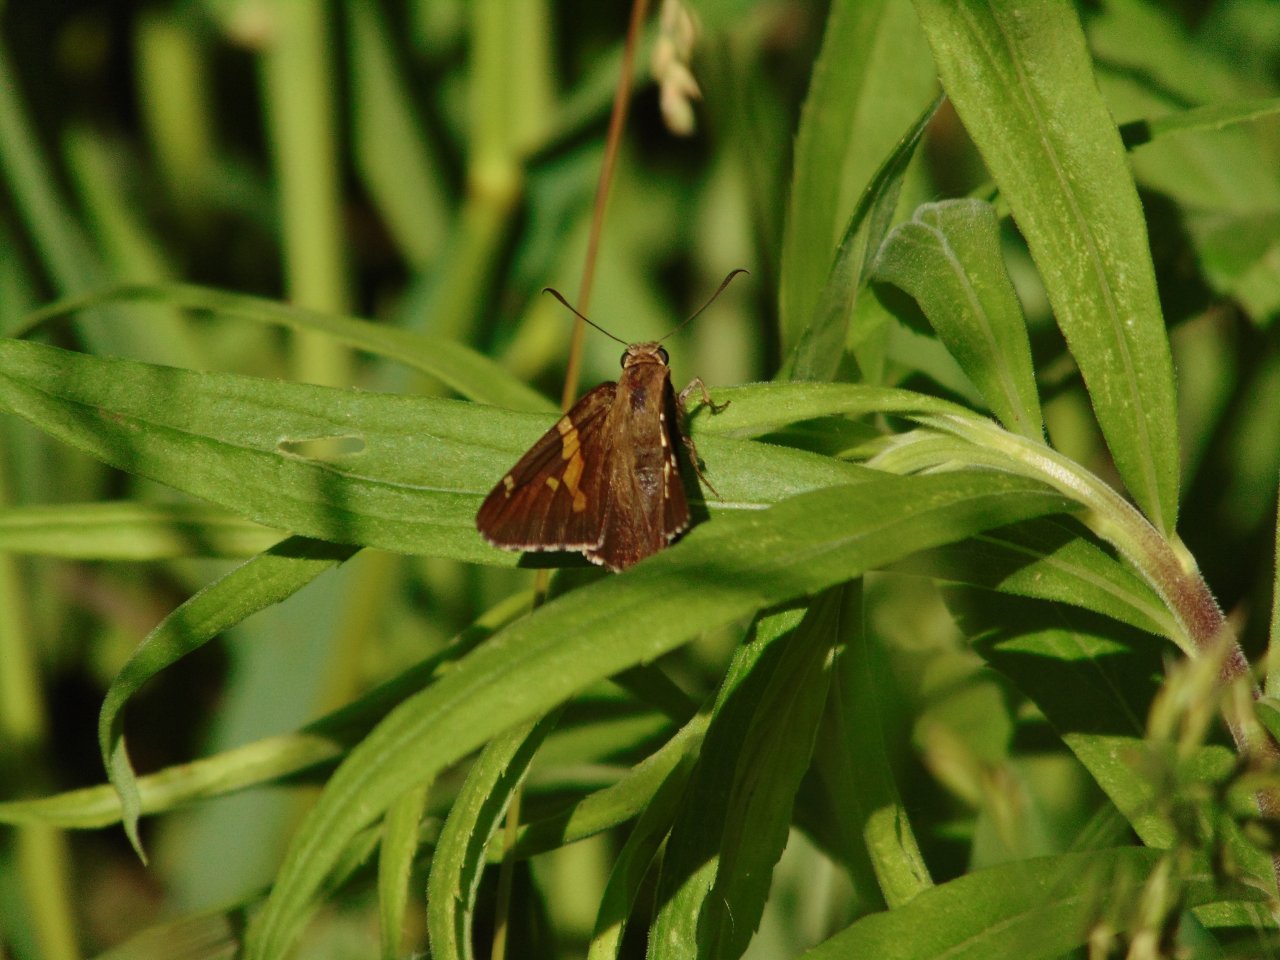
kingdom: Animalia
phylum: Arthropoda
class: Insecta
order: Lepidoptera
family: Hesperiidae
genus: Epargyreus
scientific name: Epargyreus clarus
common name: Silver-spotted Skipper
